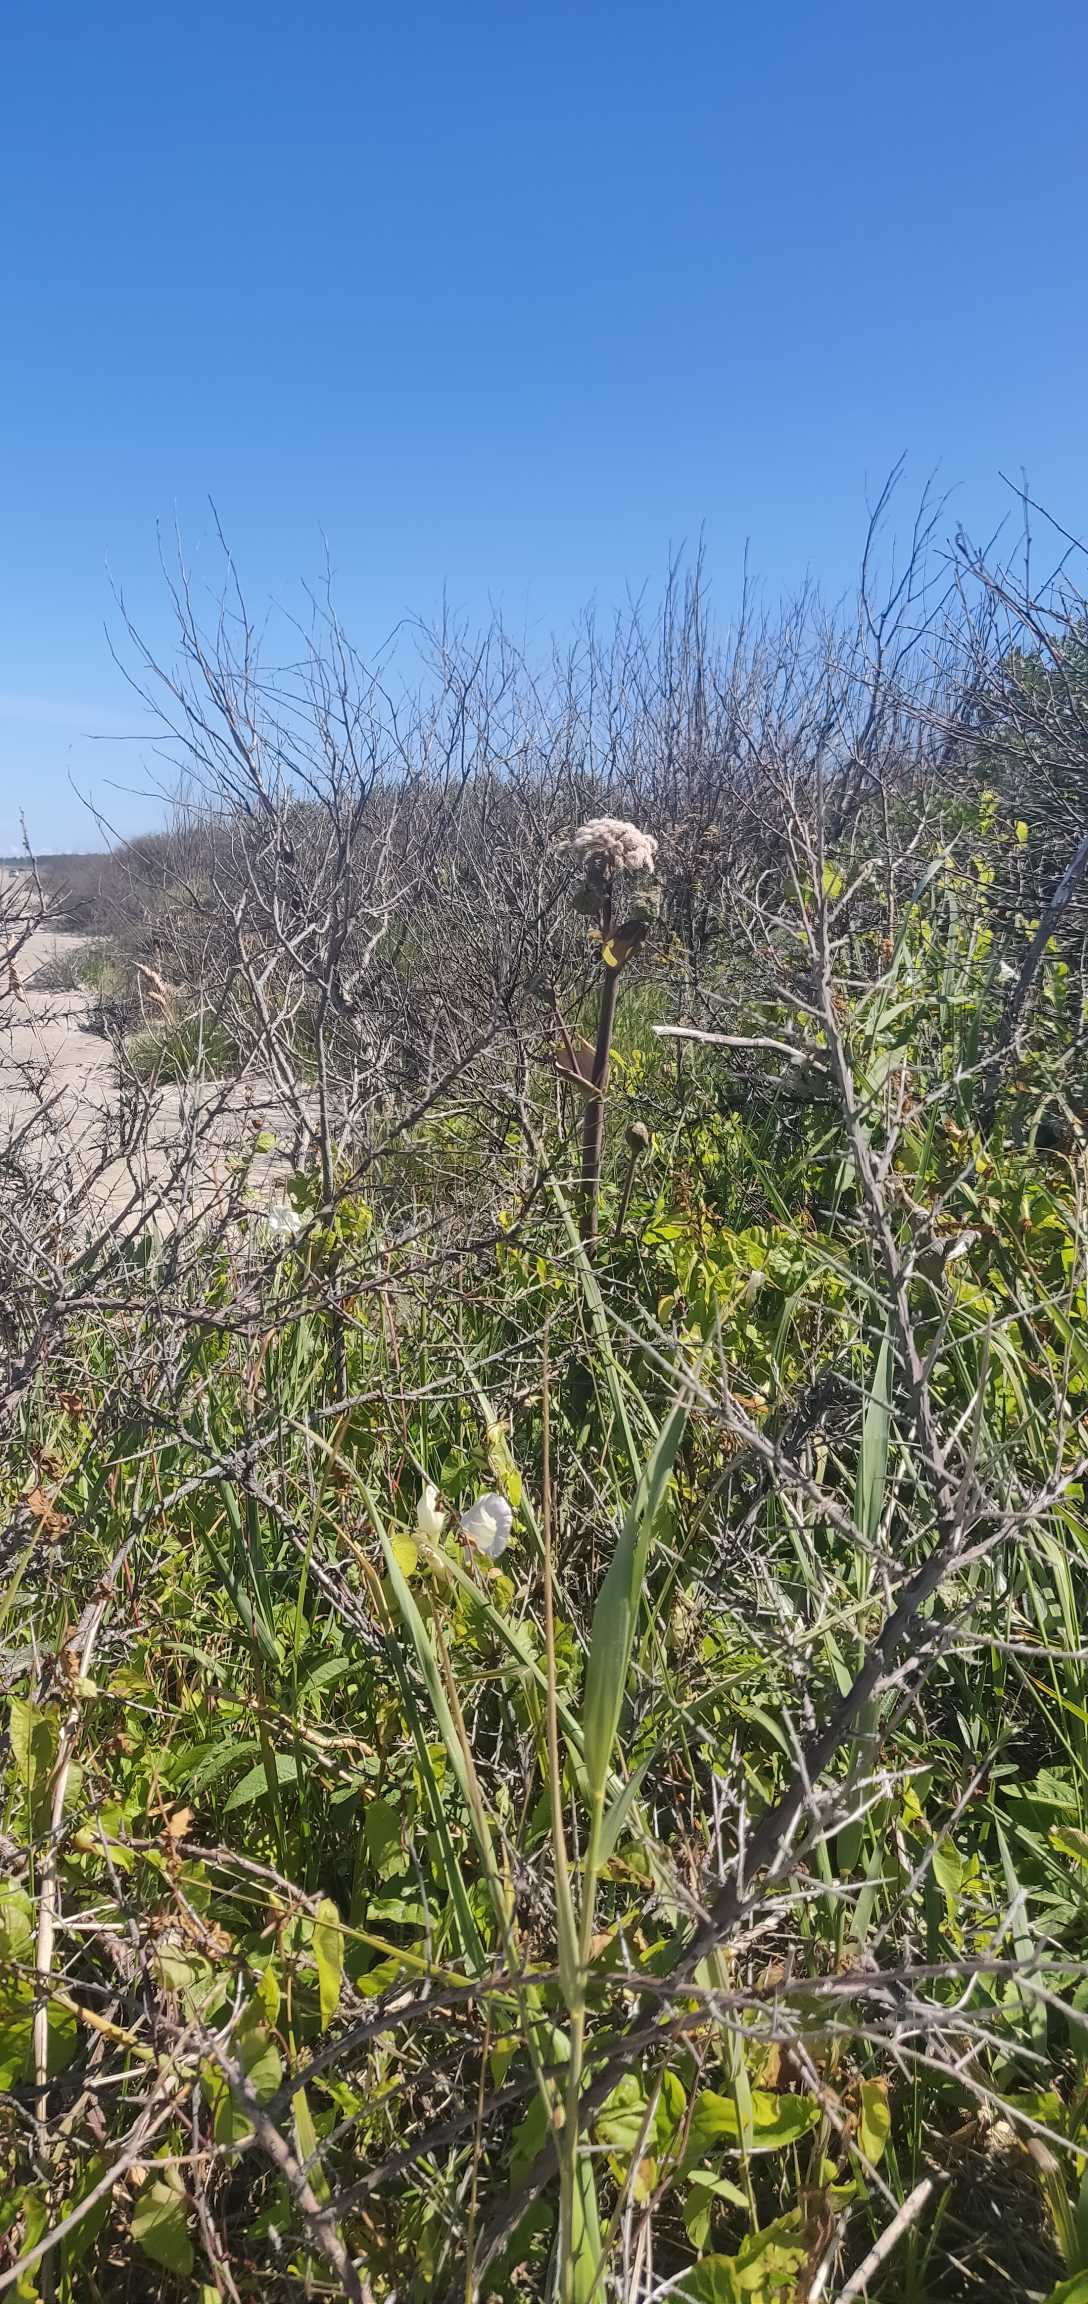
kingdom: Plantae
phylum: Tracheophyta
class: Magnoliopsida
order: Apiales
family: Apiaceae
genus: Angelica
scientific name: Angelica sylvestris
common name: Angelik
